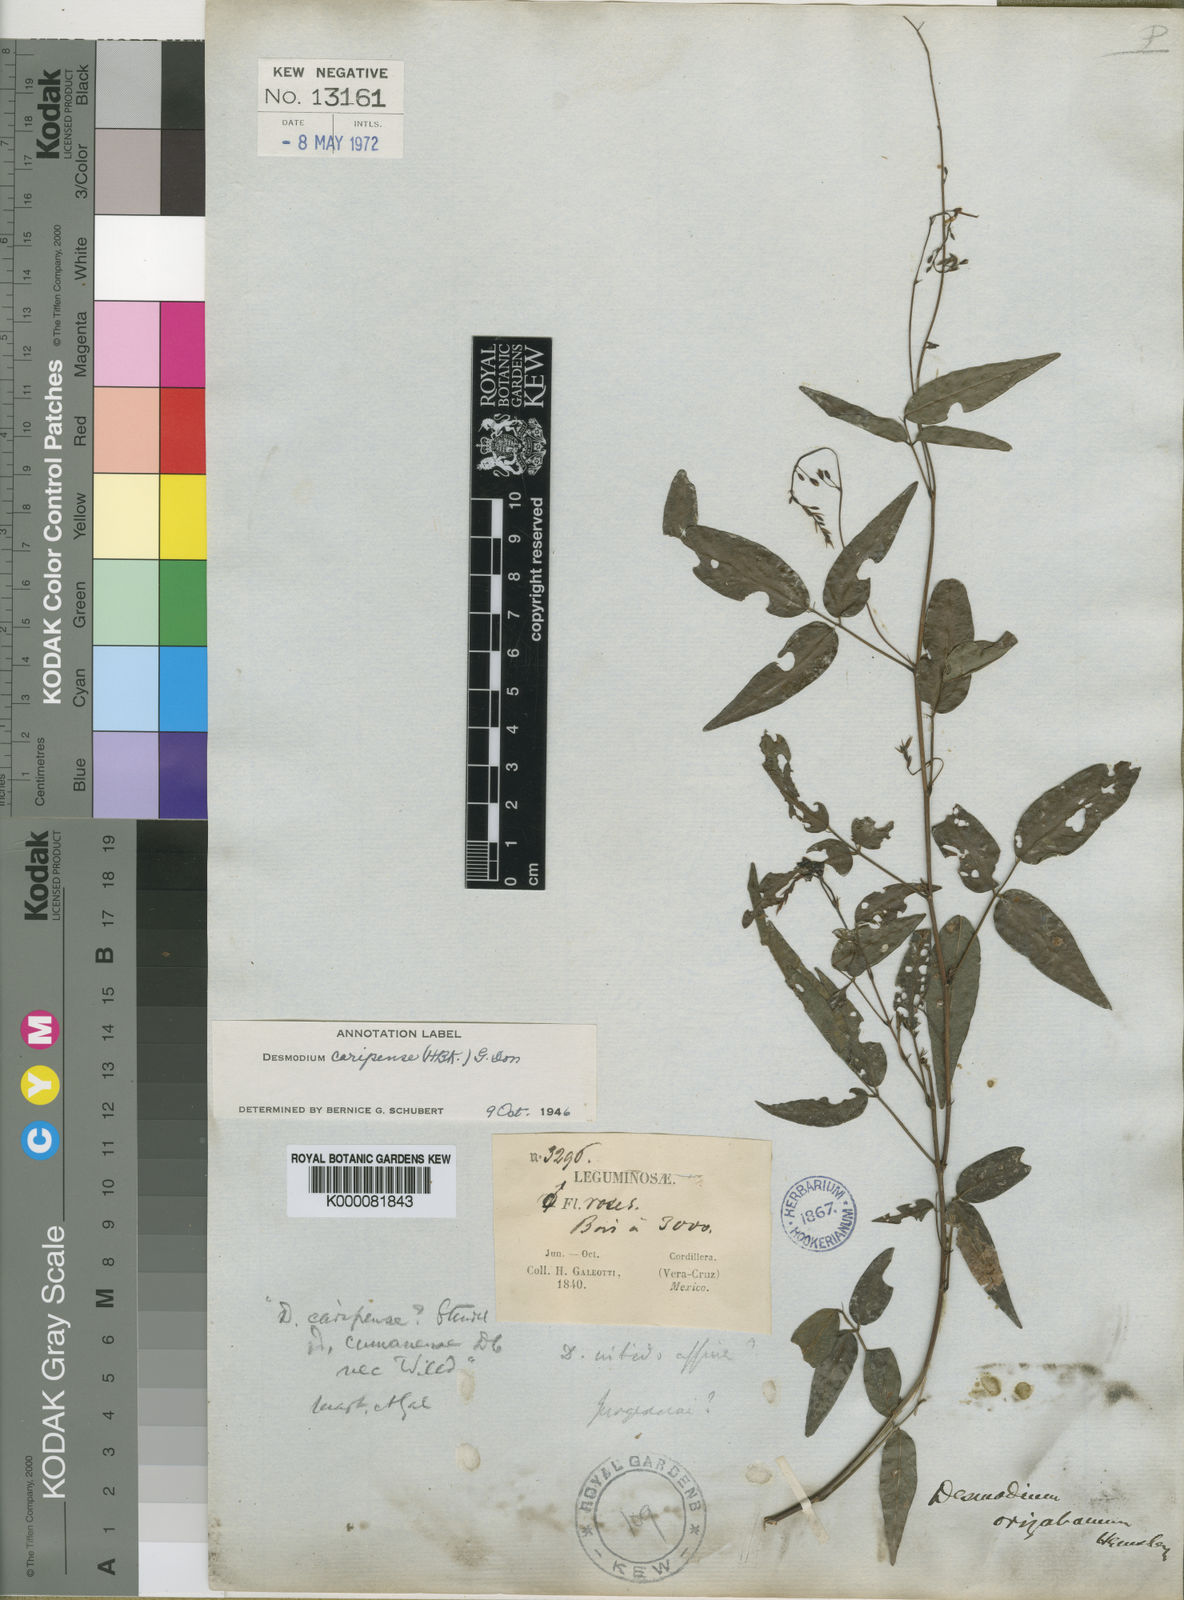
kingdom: Plantae
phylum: Tracheophyta
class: Magnoliopsida
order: Fabales
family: Fabaceae
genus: Desmodium
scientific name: Desmodium orizabanum
